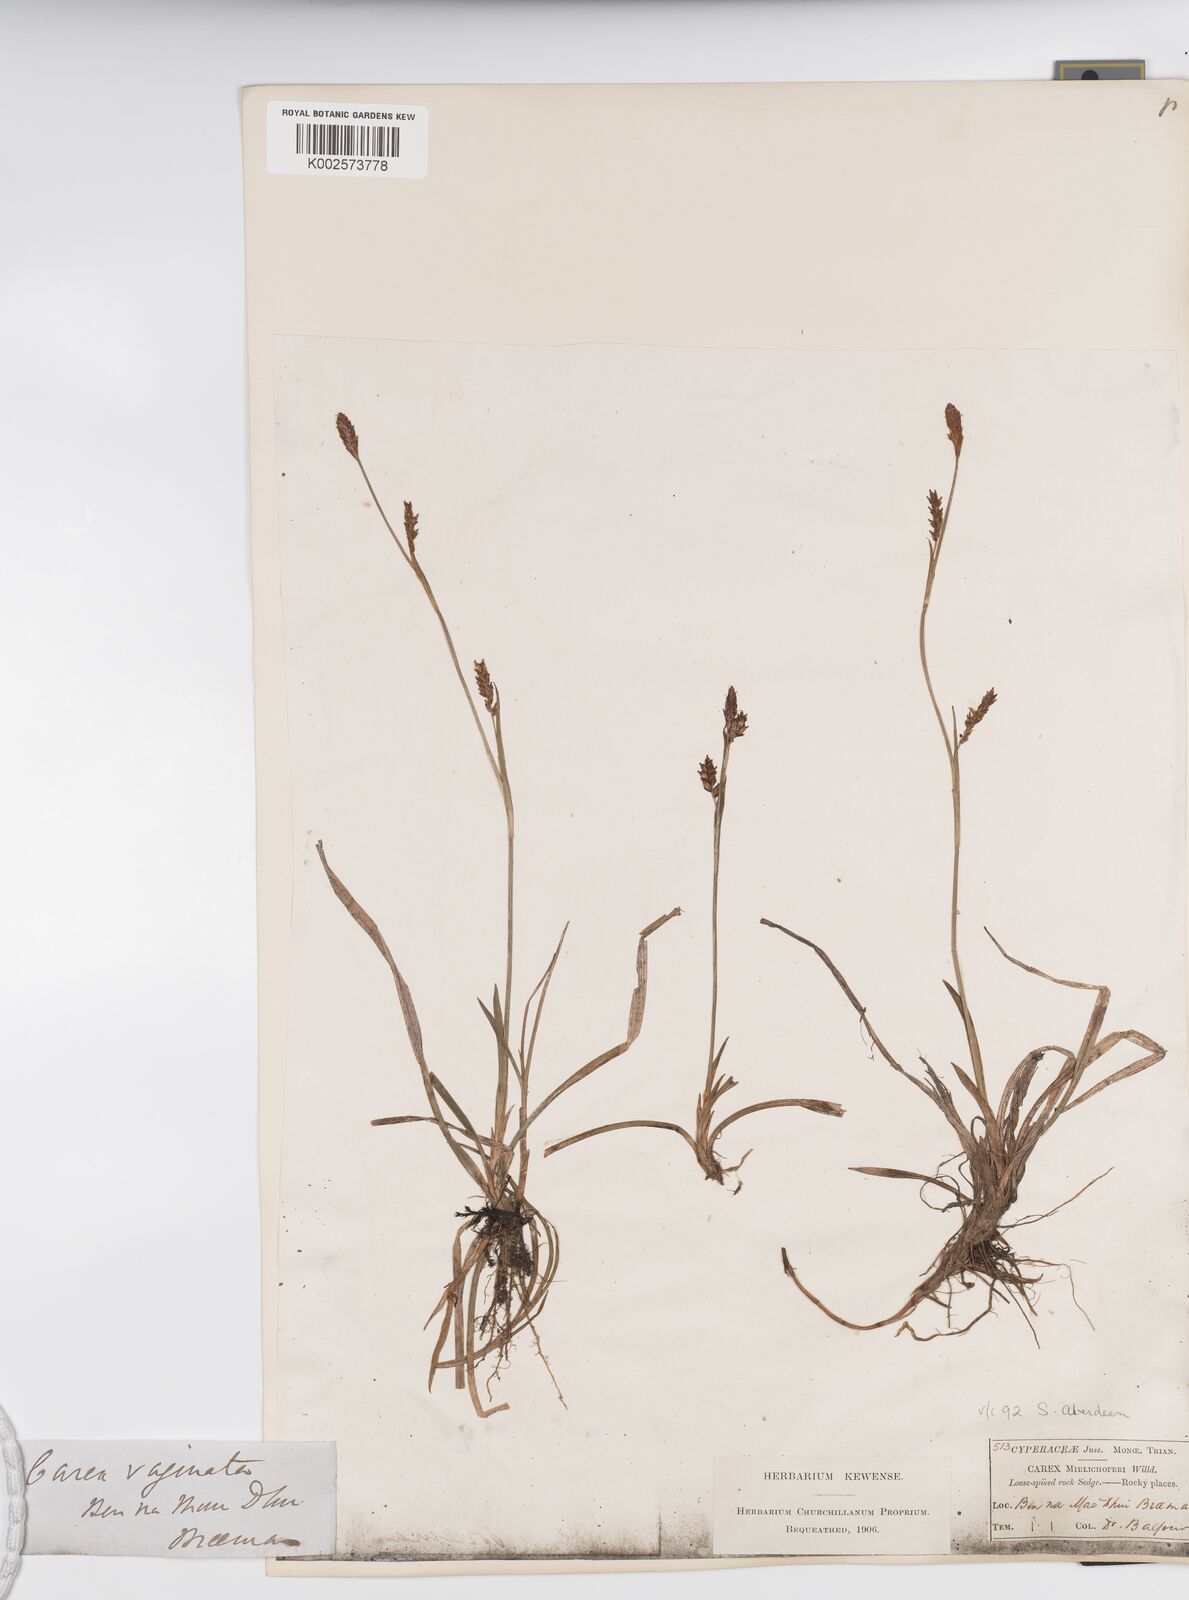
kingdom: Plantae
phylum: Tracheophyta
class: Liliopsida
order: Poales
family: Cyperaceae
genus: Carex
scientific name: Carex vaginata
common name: Sheathed sedge
